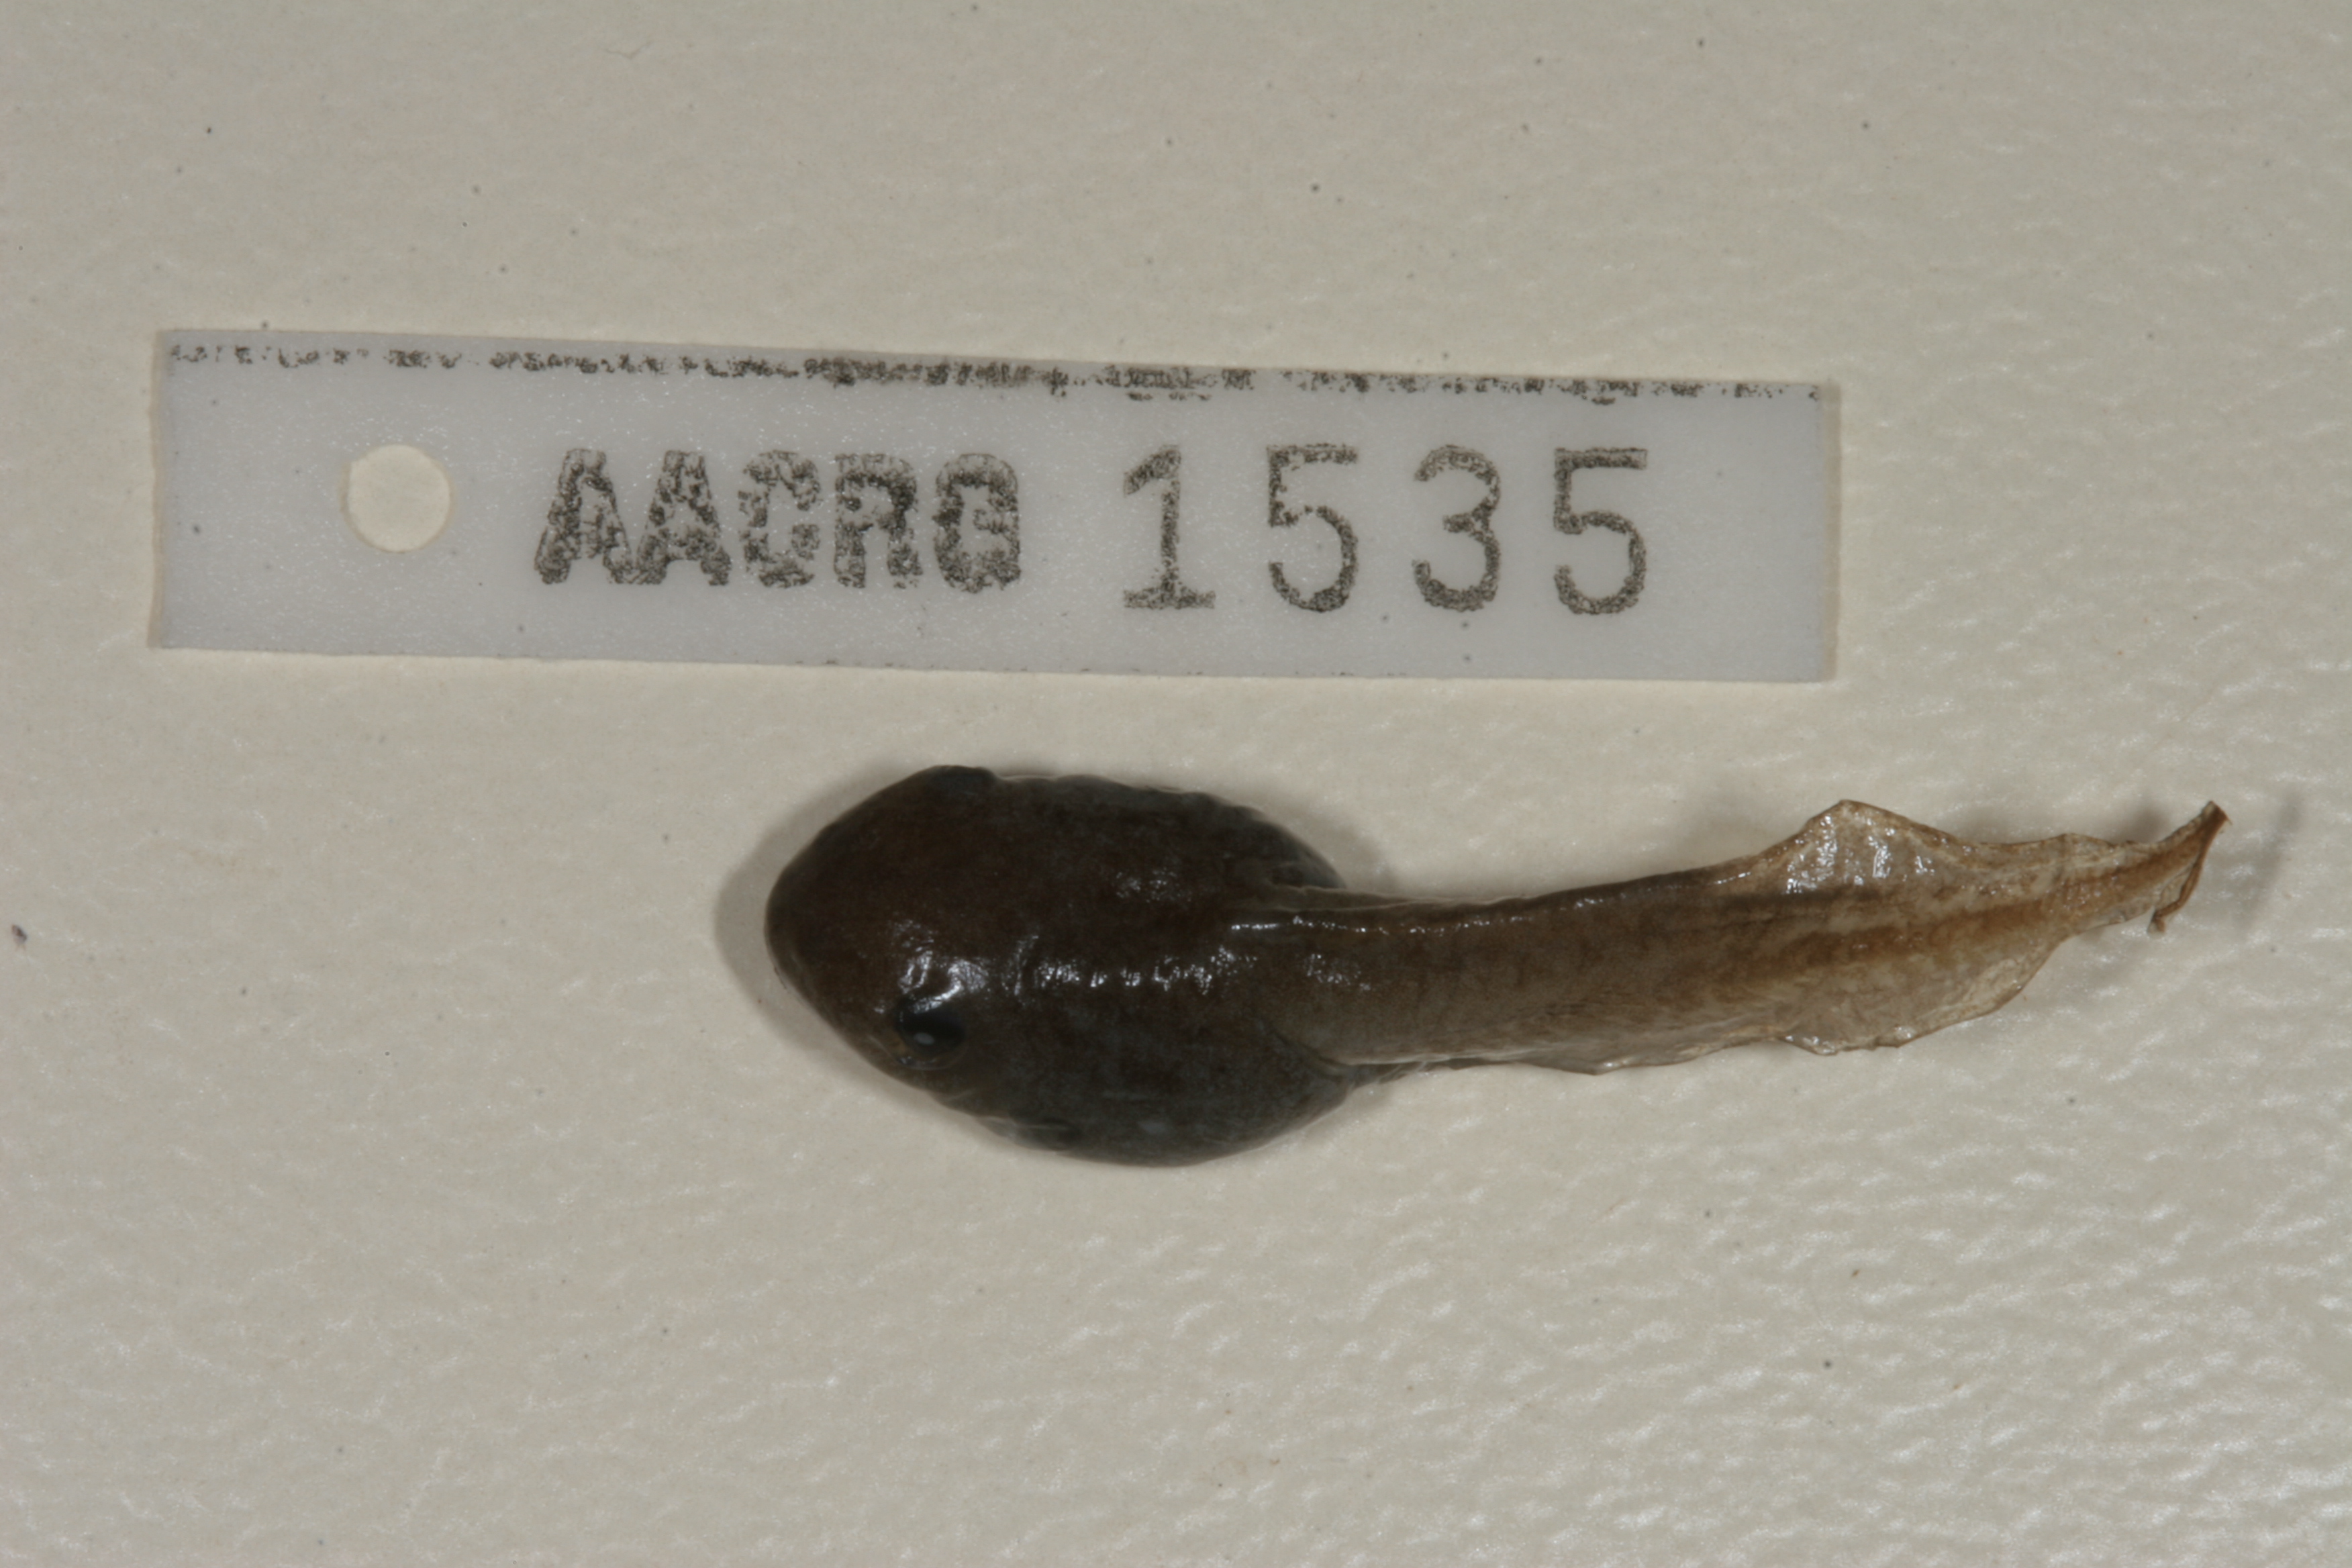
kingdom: Animalia
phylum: Chordata
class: Amphibia
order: Anura
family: Hemisotidae
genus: Hemisus
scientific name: Hemisus marmoratus
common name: Mottled shovel-nosed frog
